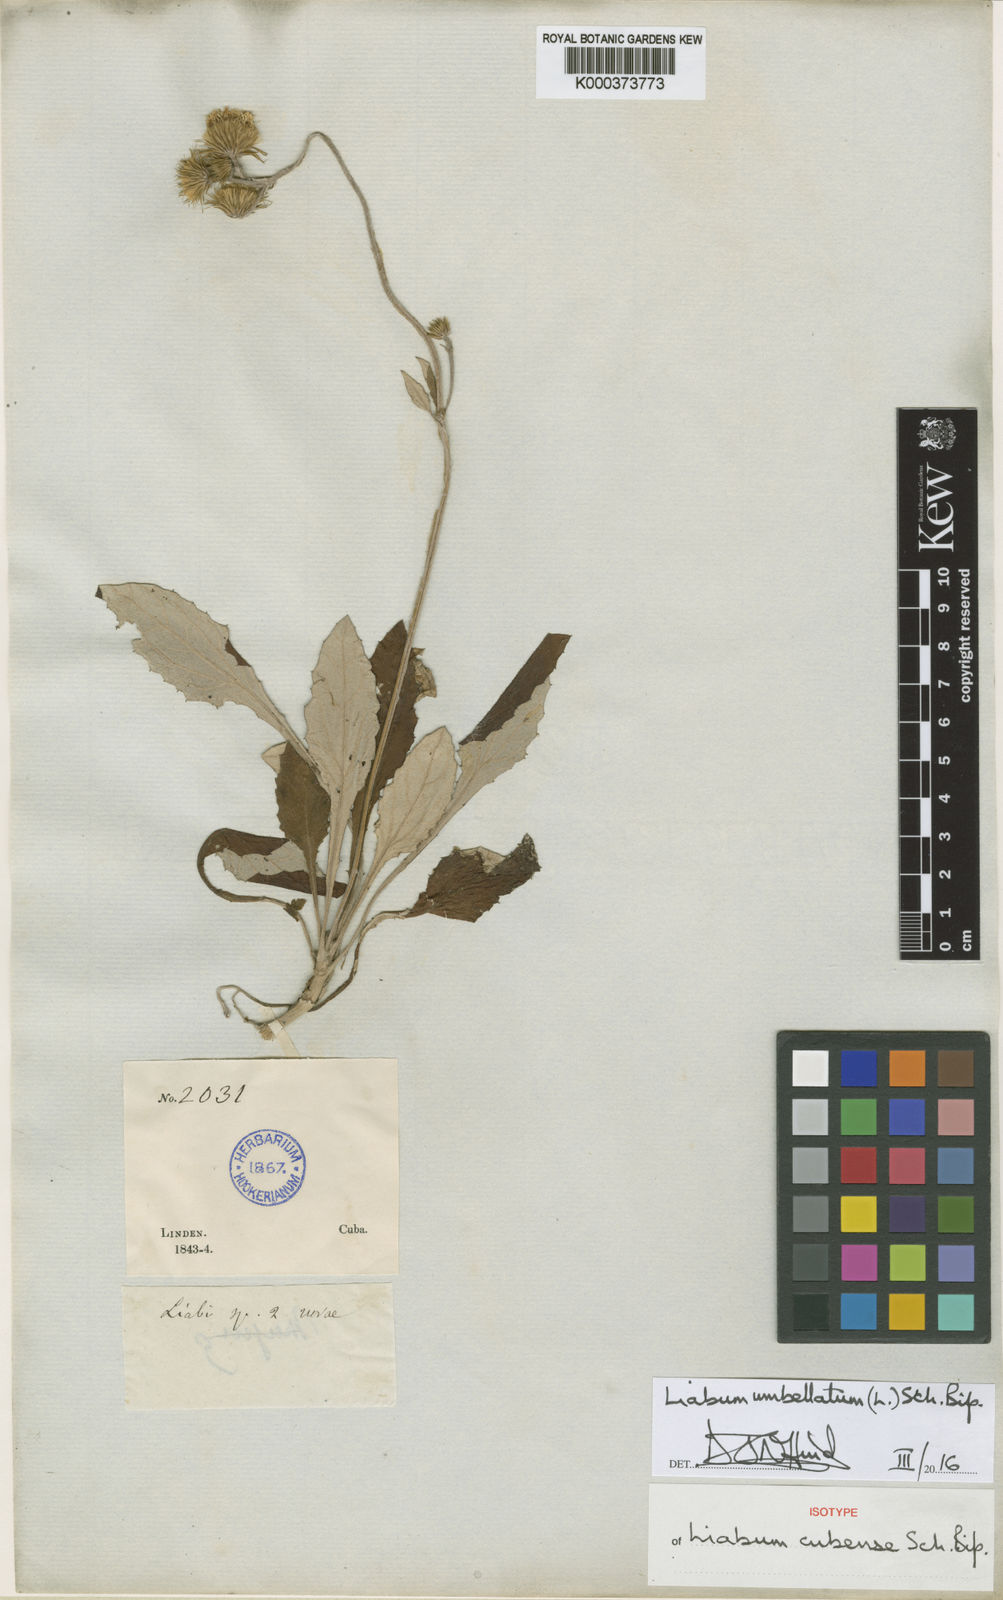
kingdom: Plantae
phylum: Tracheophyta
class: Magnoliopsida
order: Asterales
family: Asteraceae
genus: Liabum
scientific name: Liabum umbellatum
